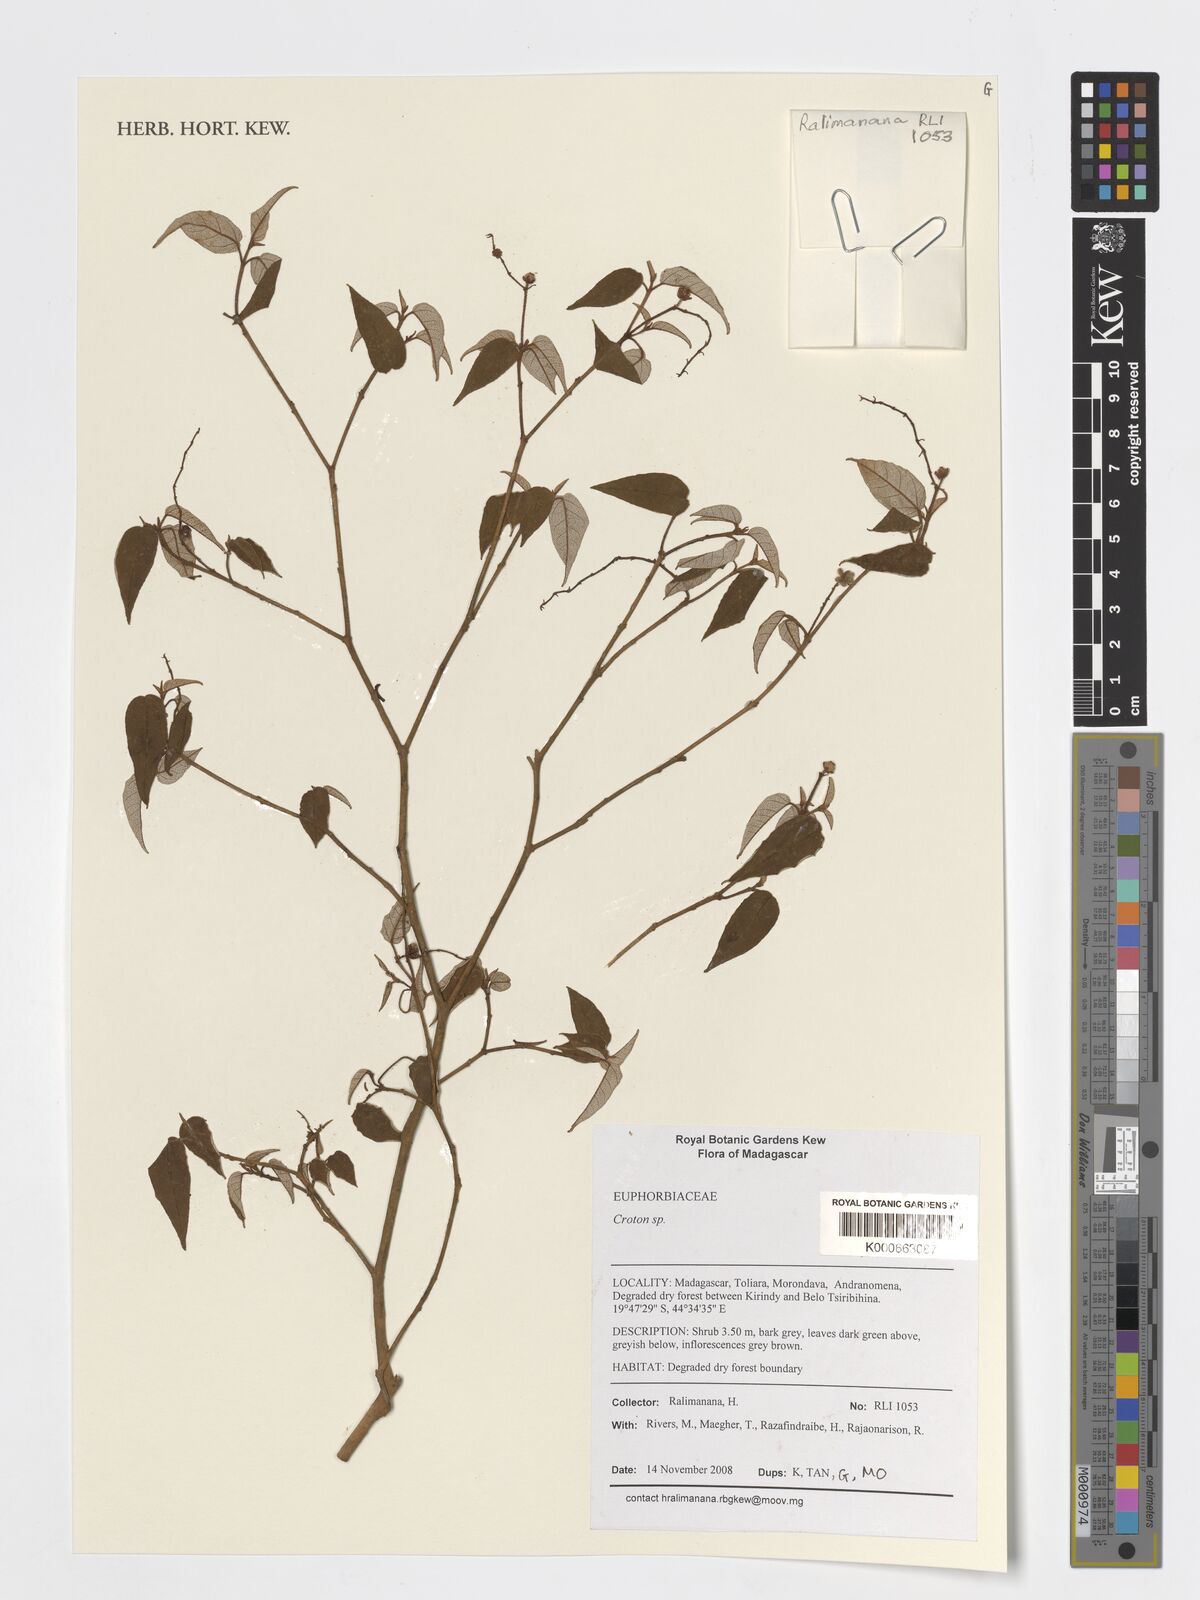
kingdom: Plantae
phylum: Tracheophyta
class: Magnoliopsida
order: Malpighiales
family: Euphorbiaceae
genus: Croton
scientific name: Croton
